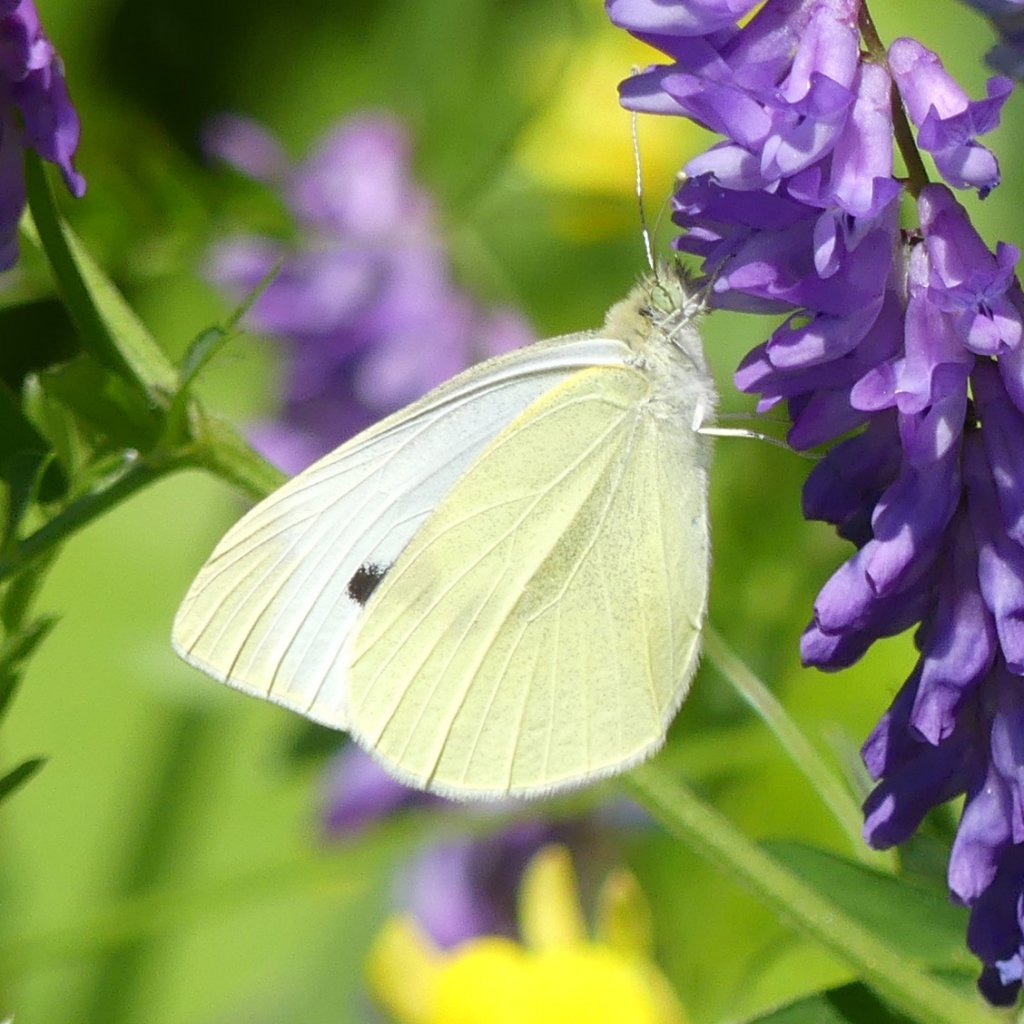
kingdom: Animalia
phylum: Arthropoda
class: Insecta
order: Lepidoptera
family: Pieridae
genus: Pieris
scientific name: Pieris rapae
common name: Cabbage White
